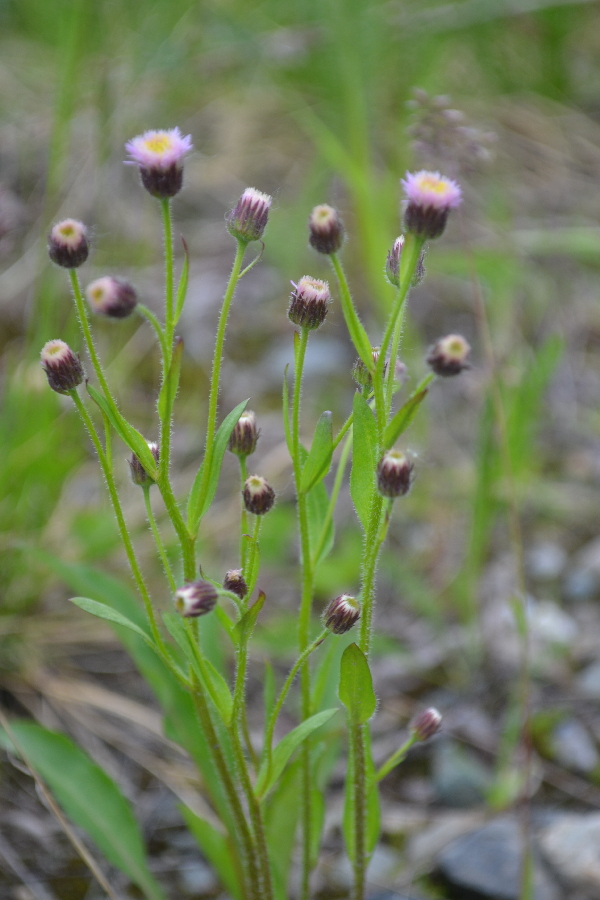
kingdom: Plantae
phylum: Tracheophyta
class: Magnoliopsida
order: Asterales
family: Asteraceae
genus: Erigeron
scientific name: Erigeron acris
